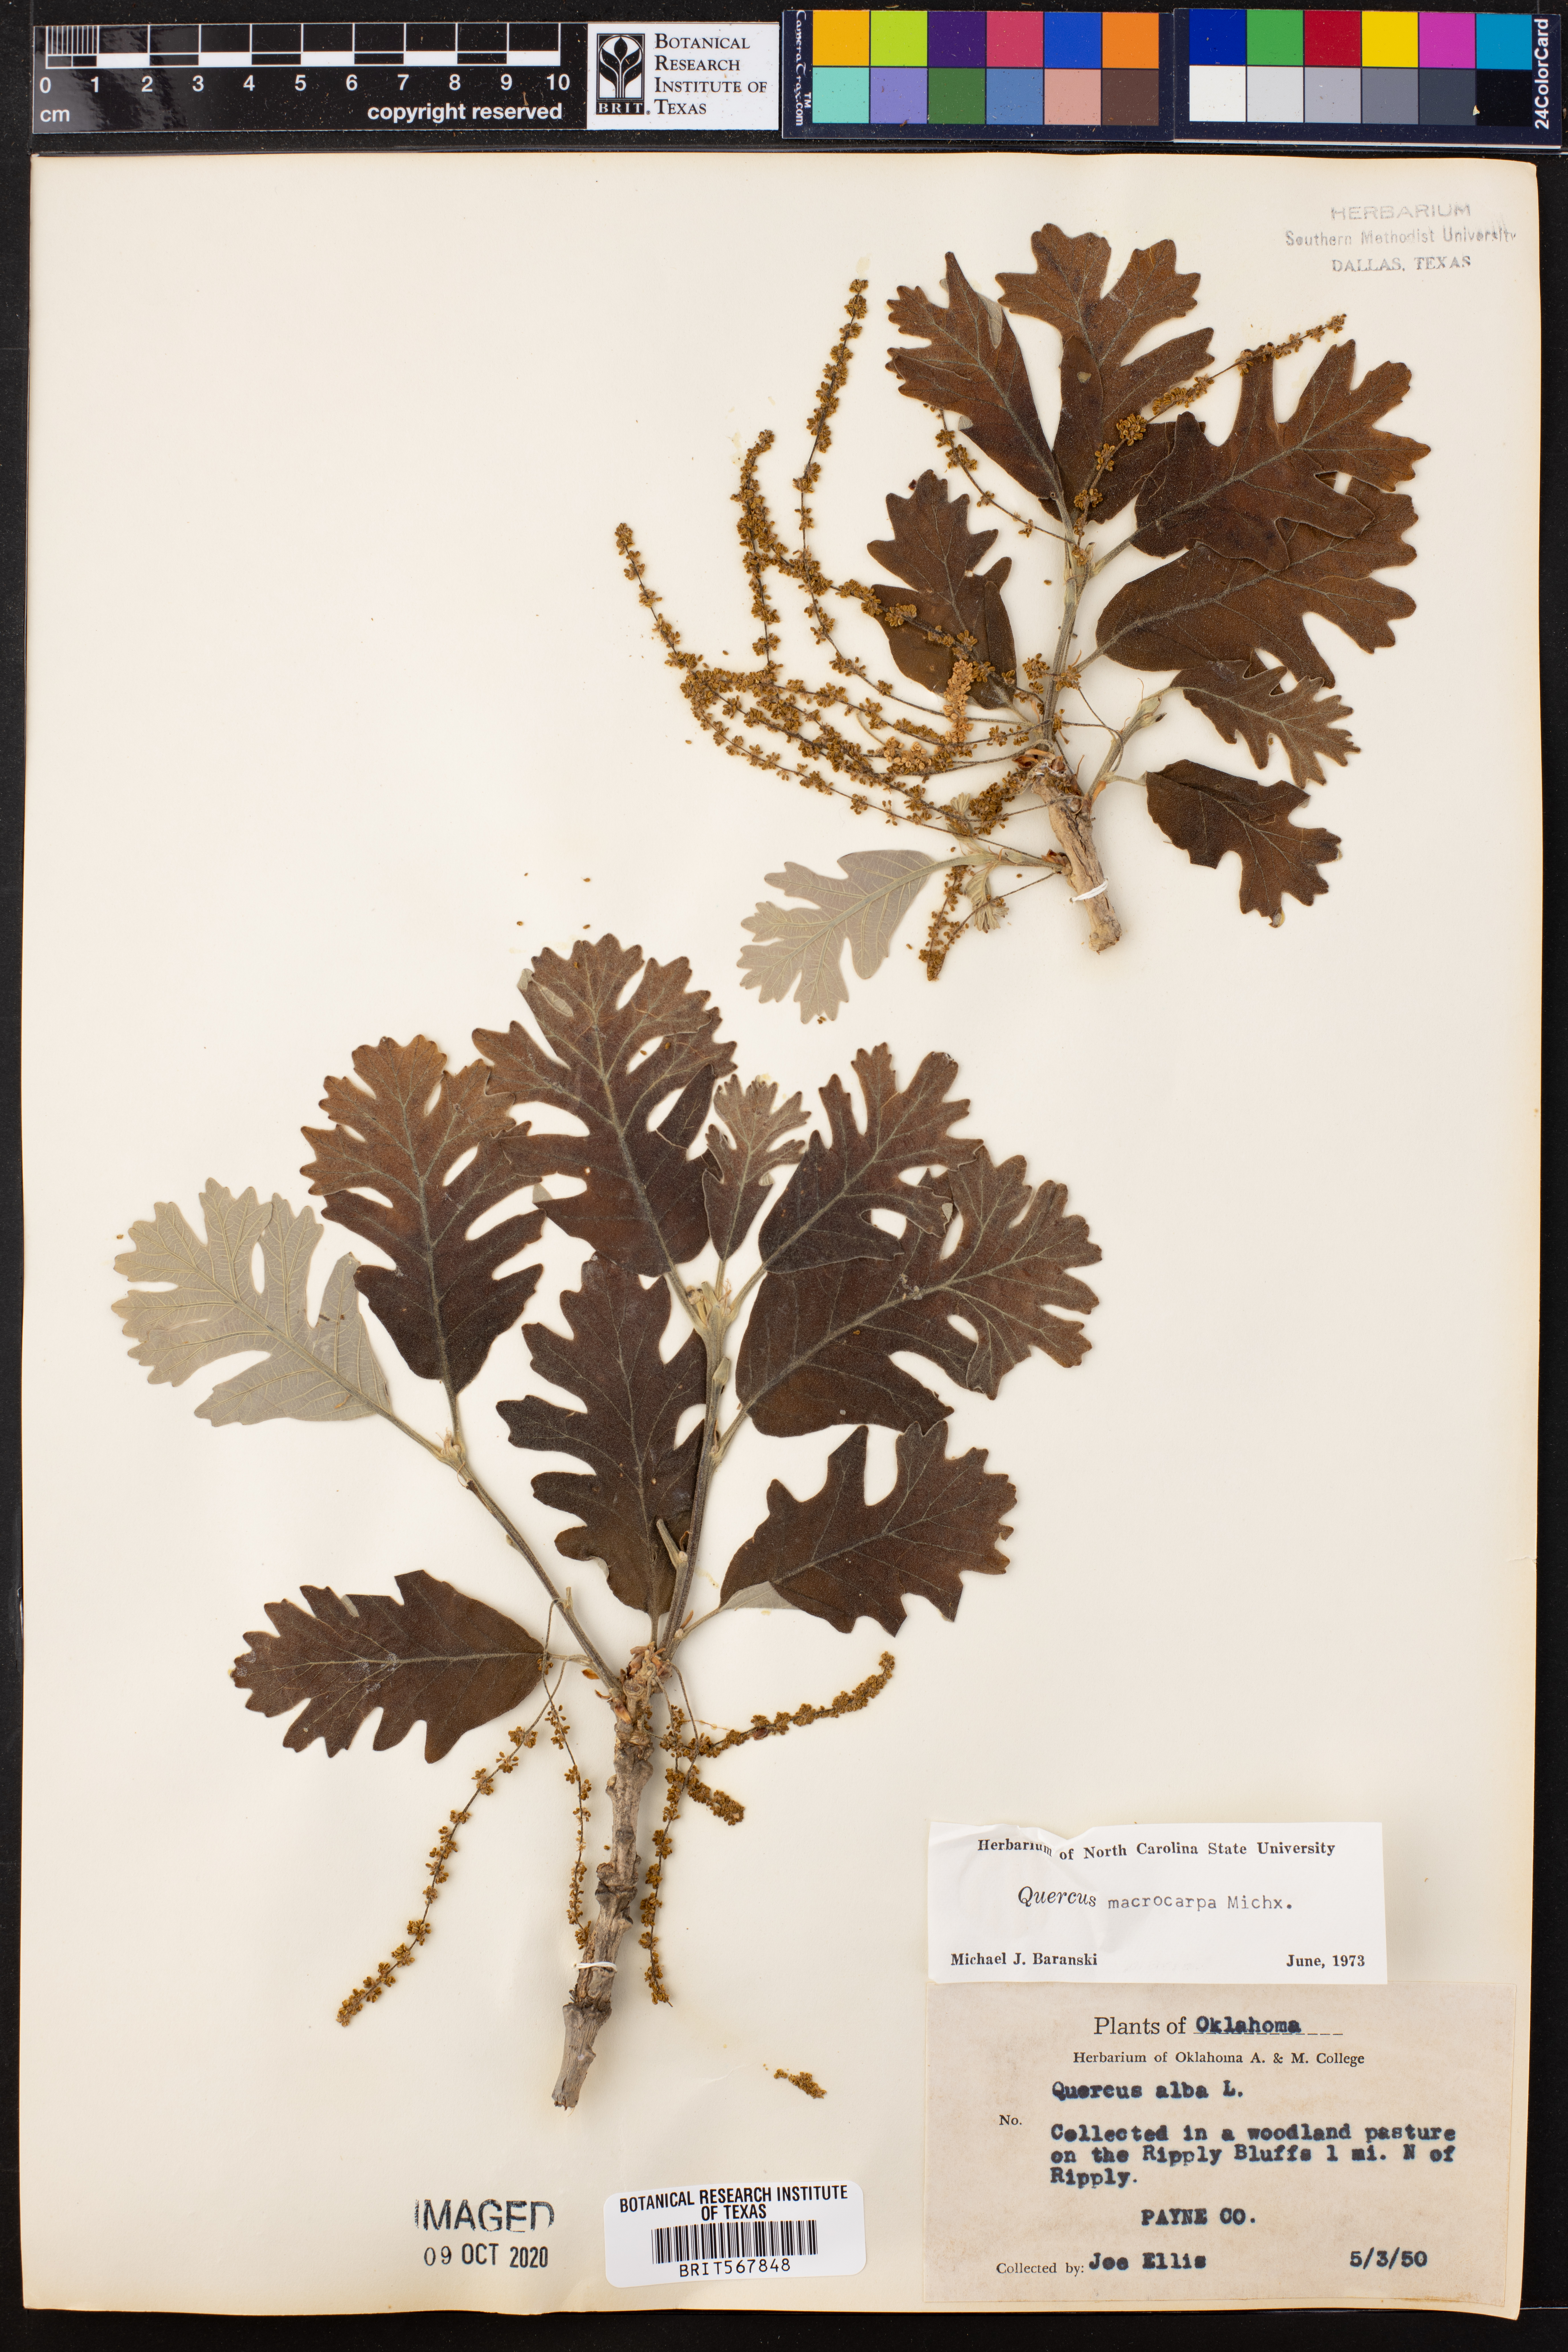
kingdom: Plantae
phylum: Tracheophyta
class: Magnoliopsida
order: Fagales
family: Fagaceae
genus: Quercus
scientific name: Quercus macrocarpa
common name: Bur oak
